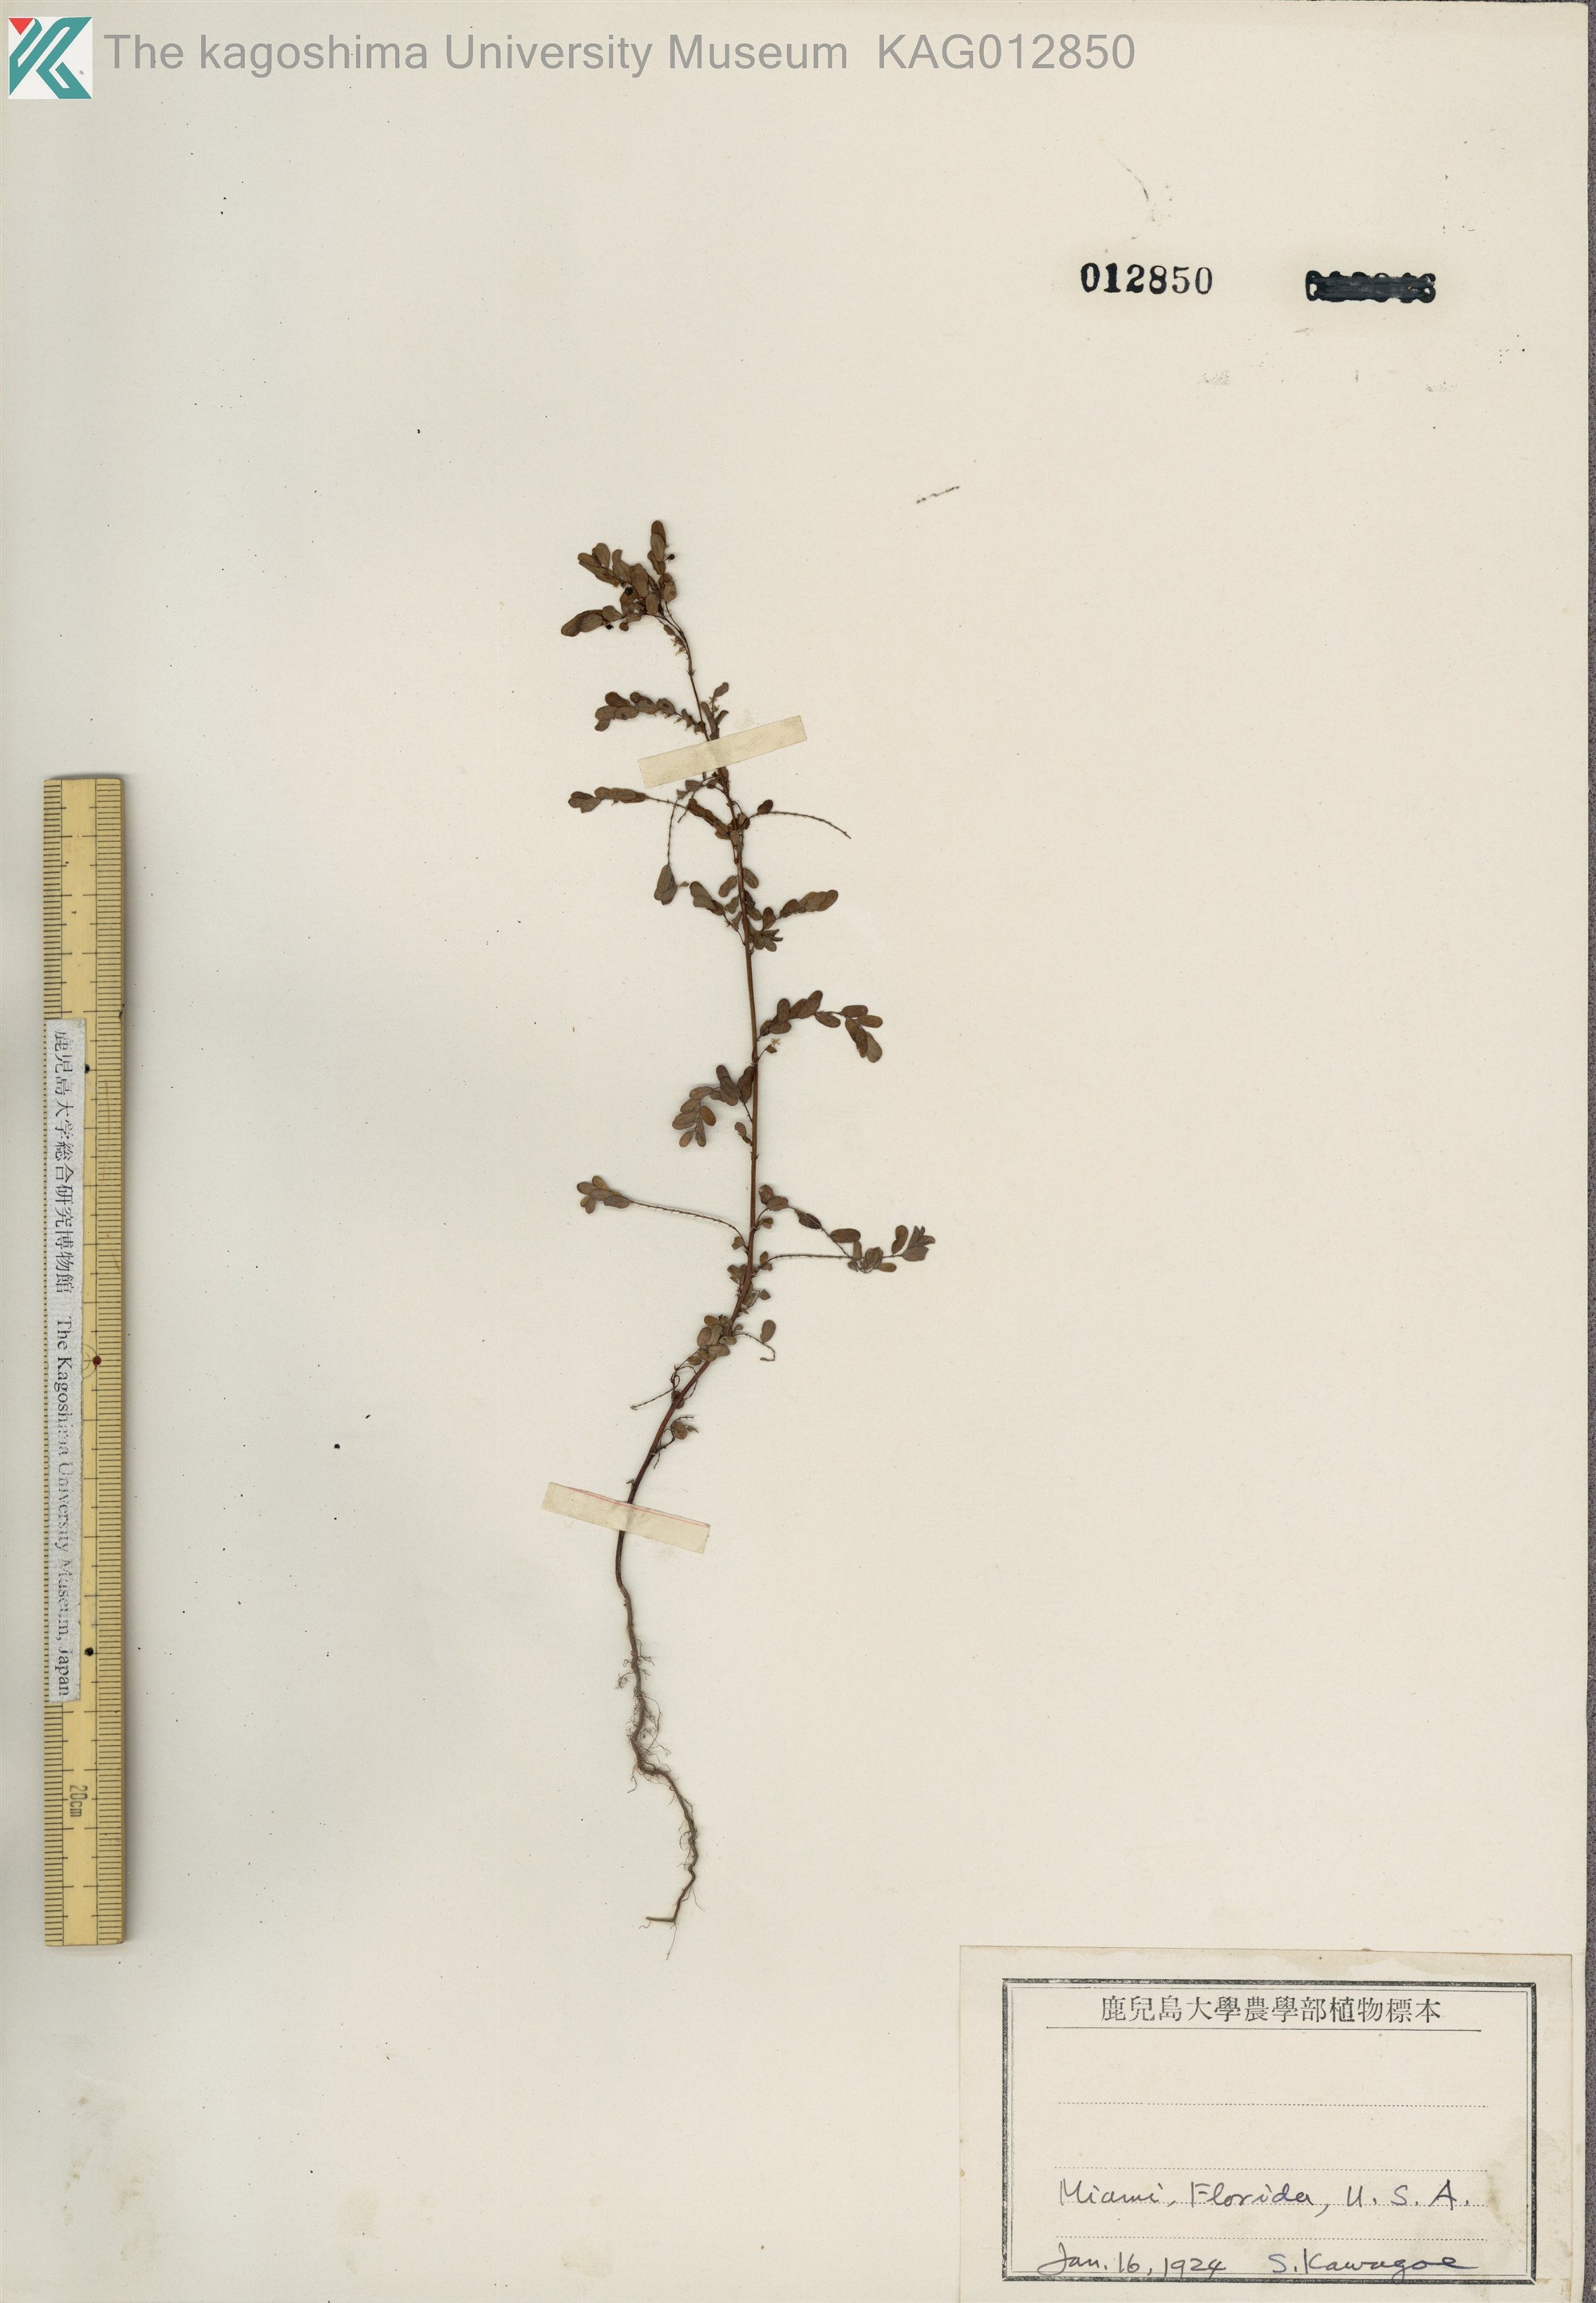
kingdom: Plantae
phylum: Tracheophyta
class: Magnoliopsida
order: Malpighiales
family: Phyllanthaceae
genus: Phyllanthus
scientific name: Phyllanthus amarus
